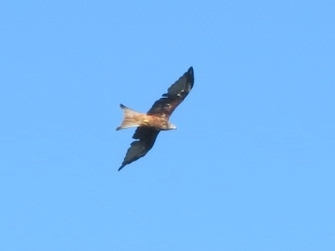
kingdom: Animalia
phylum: Chordata
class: Aves
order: Accipitriformes
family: Accipitridae
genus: Milvus
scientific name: Milvus milvus
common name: Rød glente
